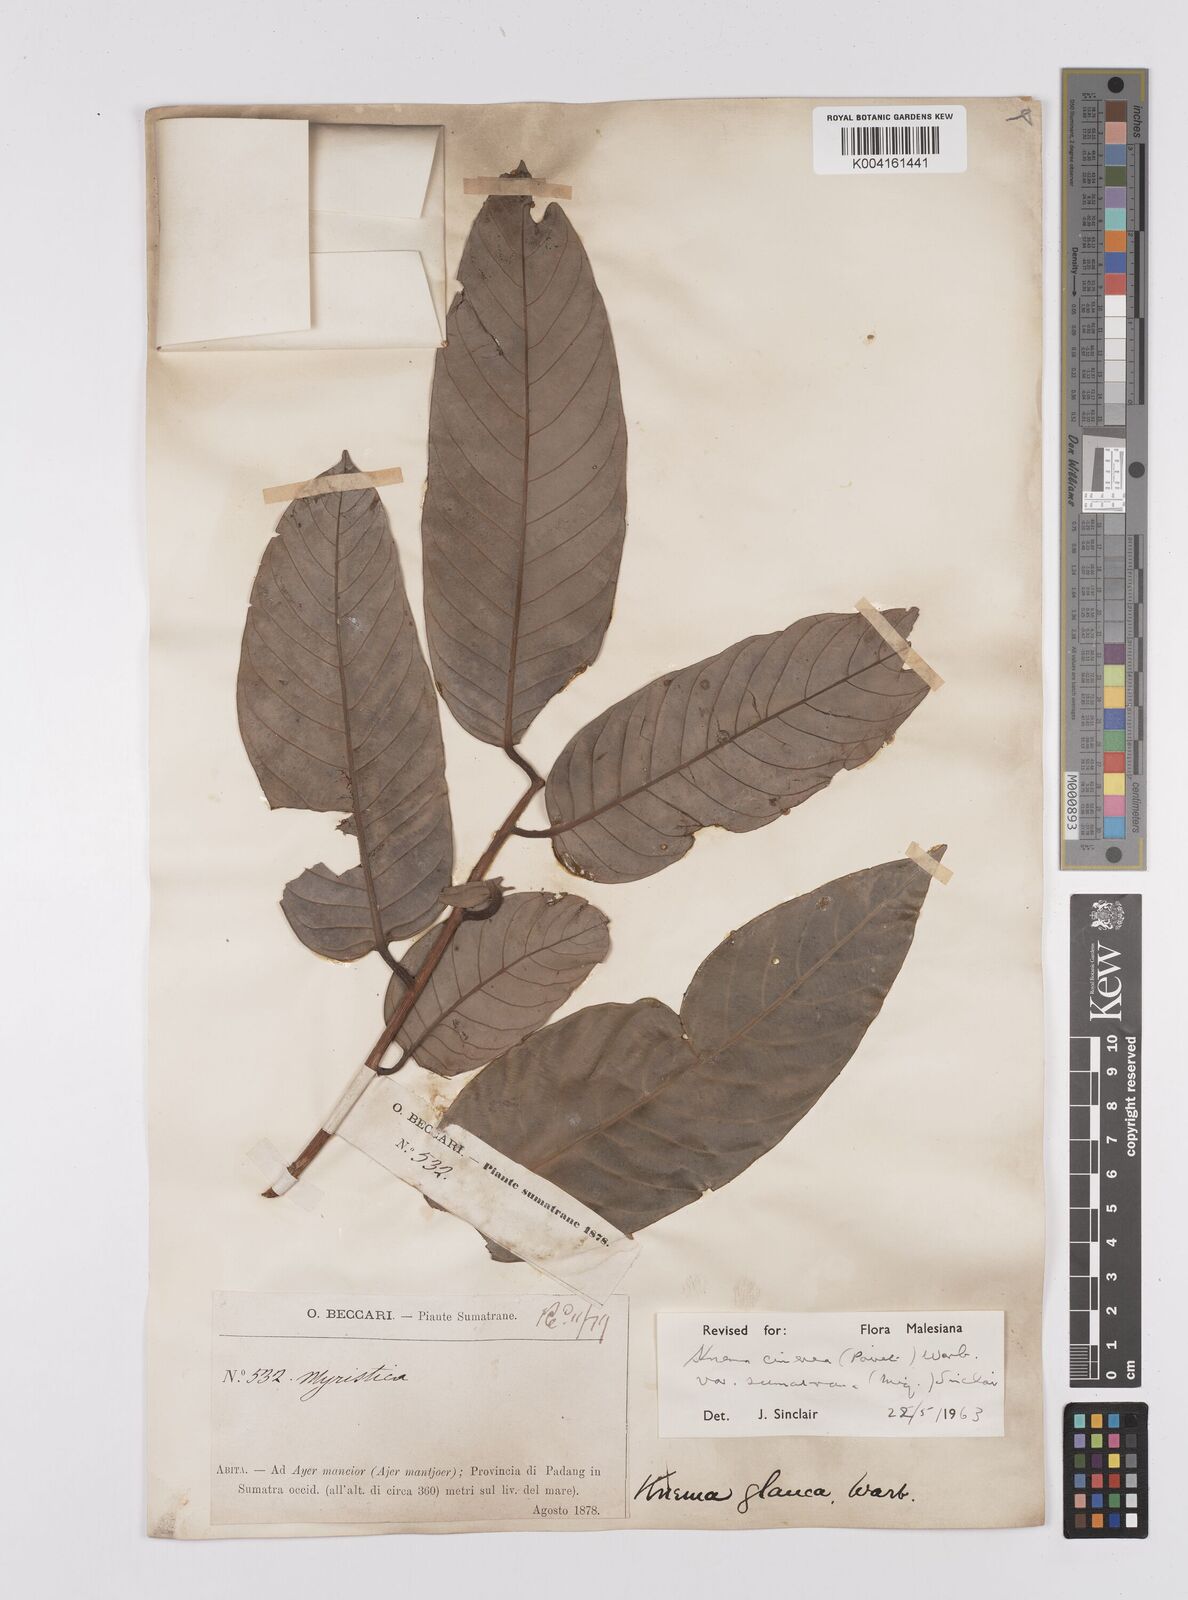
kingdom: Plantae
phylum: Tracheophyta
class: Magnoliopsida
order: Magnoliales
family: Myristicaceae
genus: Knema
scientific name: Knema
